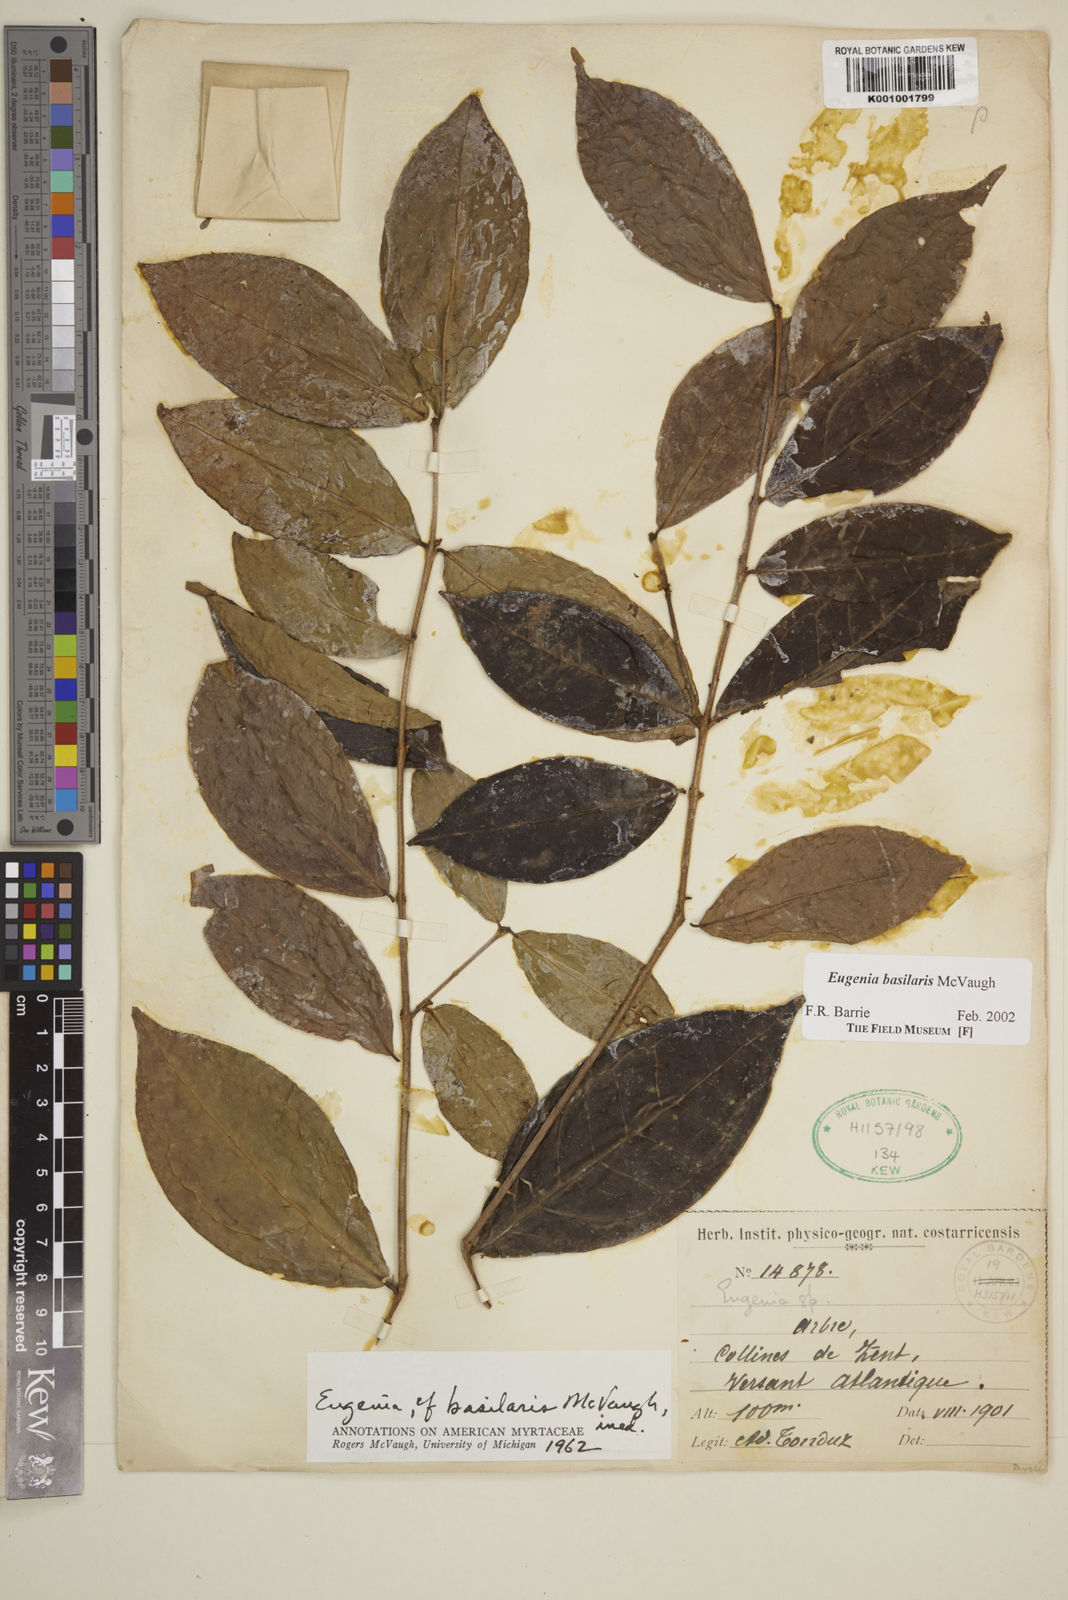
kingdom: Plantae
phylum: Tracheophyta
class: Magnoliopsida
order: Myrtales
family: Myrtaceae
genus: Eugenia
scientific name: Eugenia basilaris
